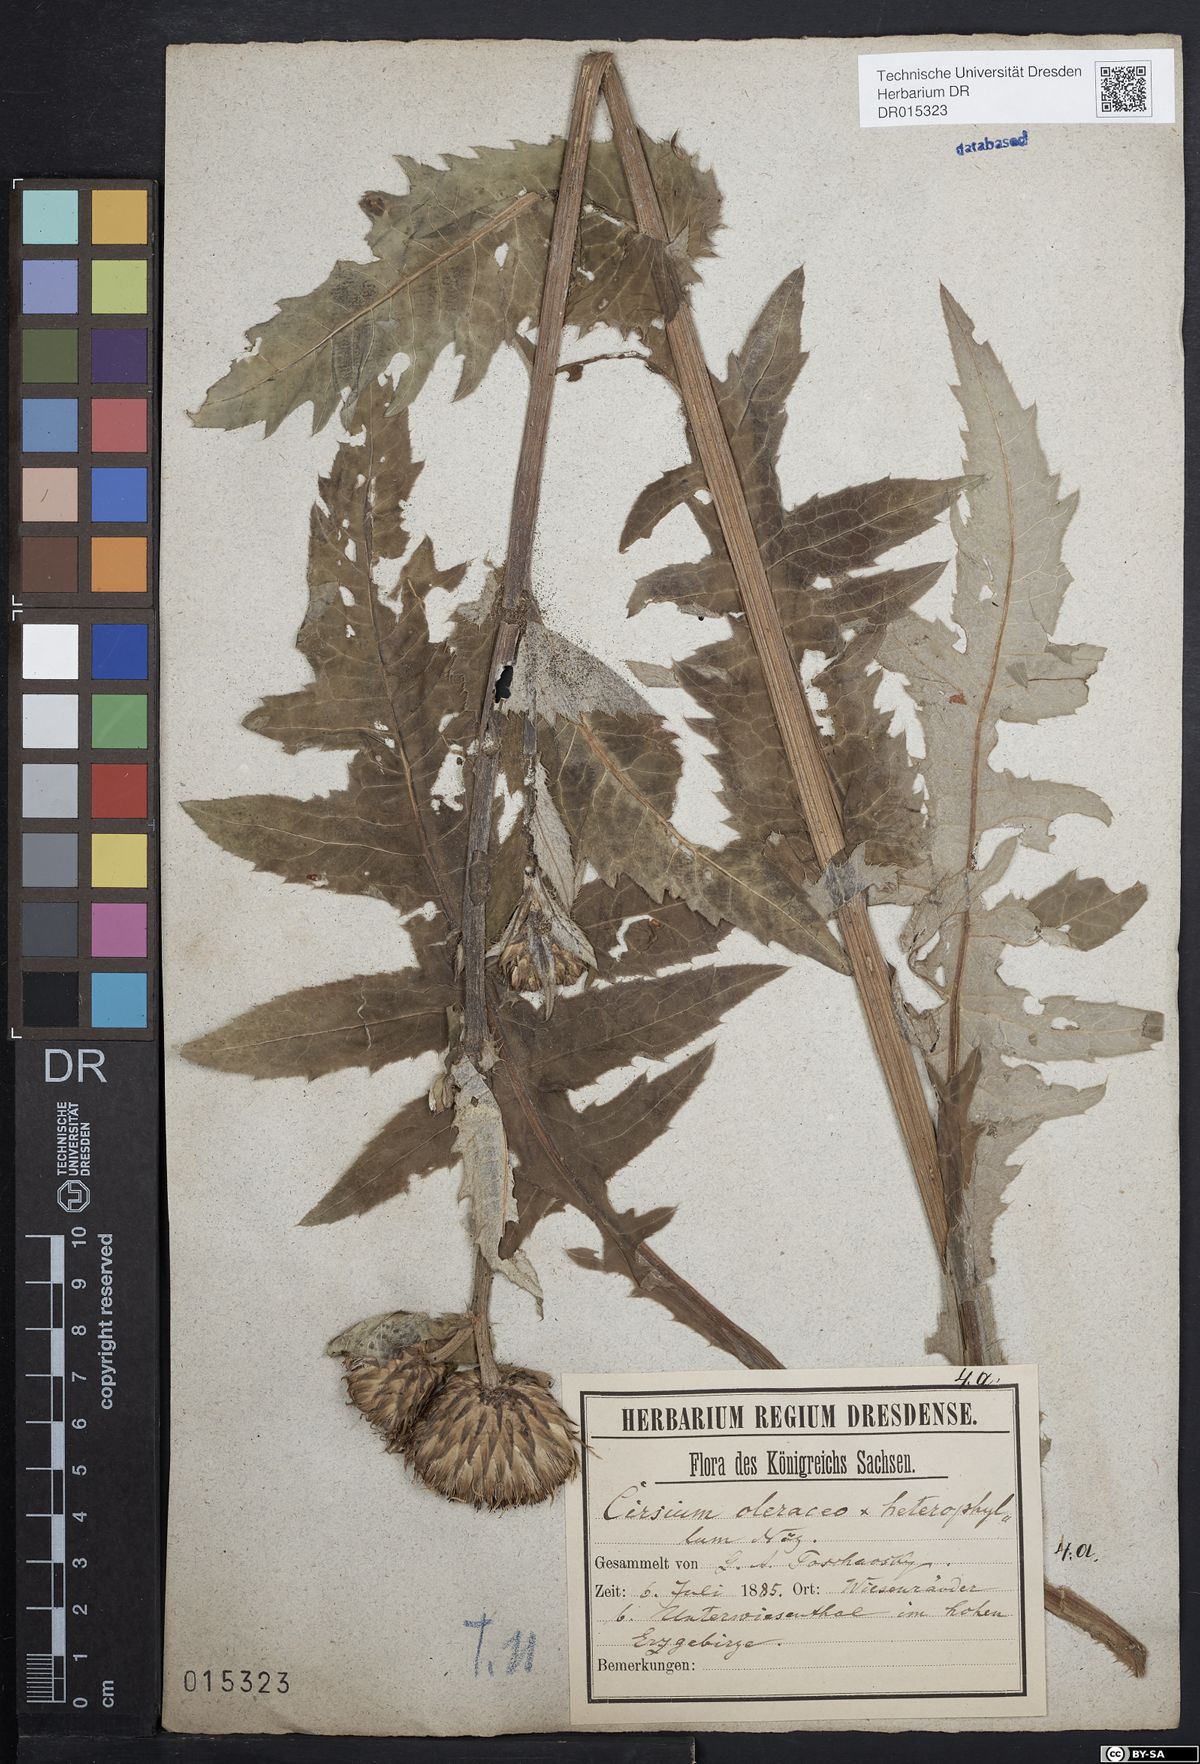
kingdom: Plantae
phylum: Tracheophyta
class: Magnoliopsida
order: Asterales
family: Asteraceae
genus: Cirsium
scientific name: Cirsium affine
